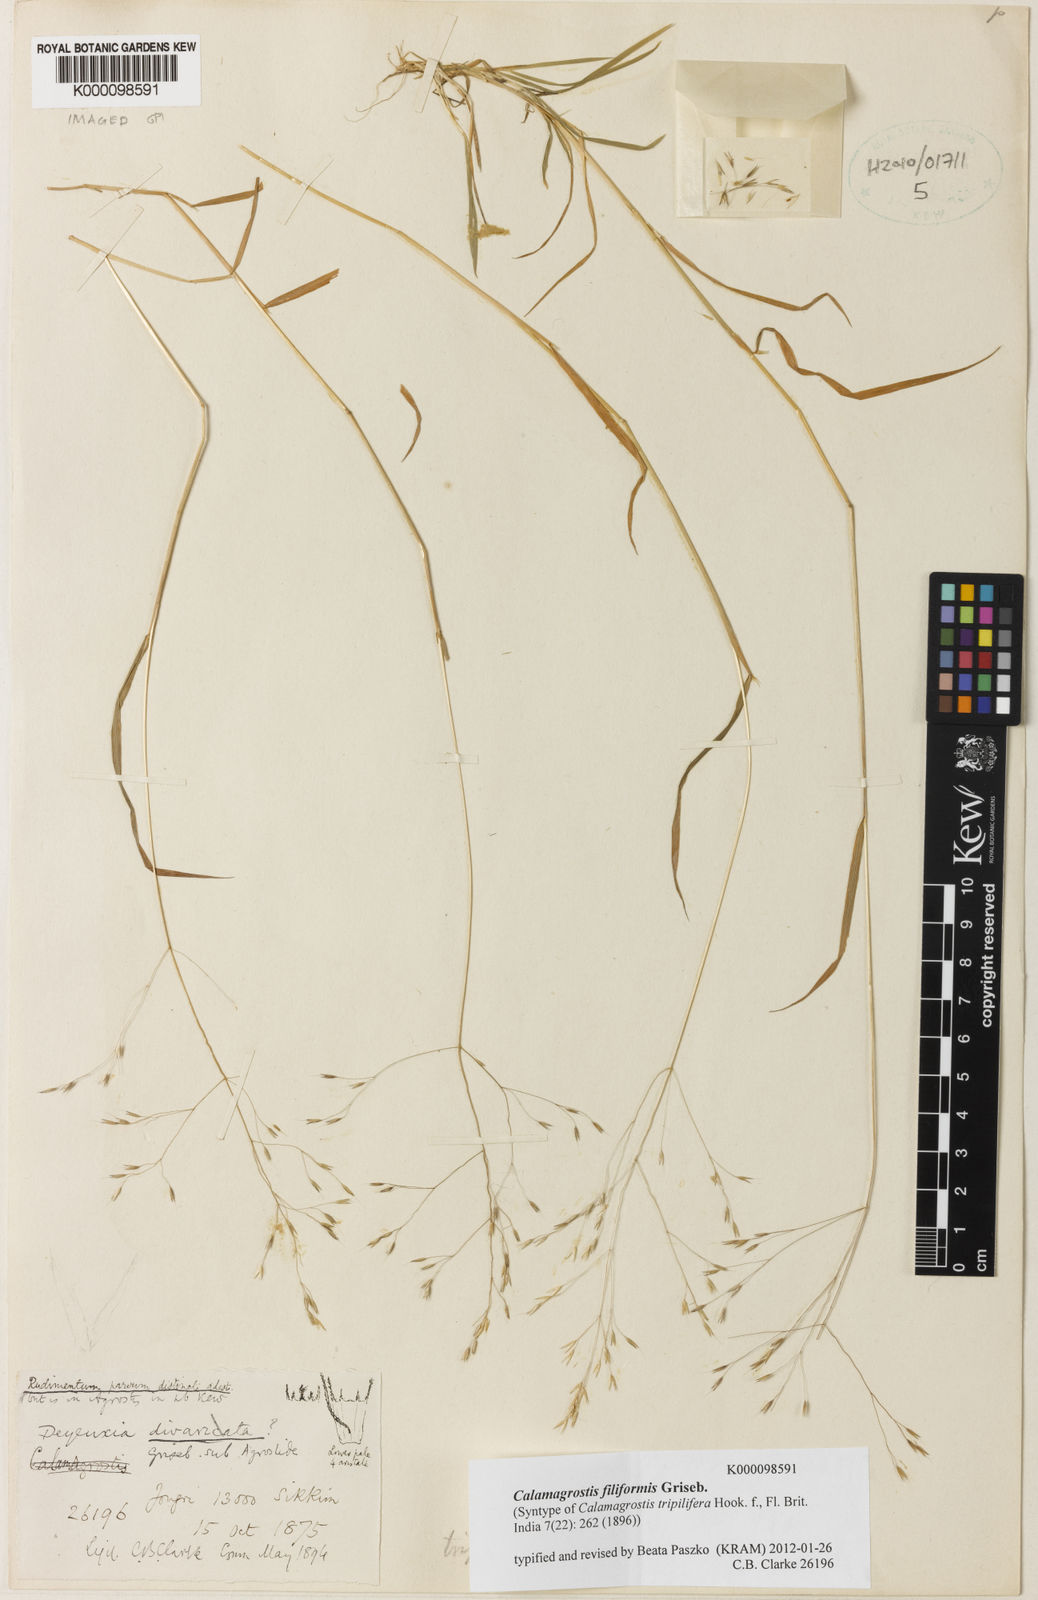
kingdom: Plantae
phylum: Tracheophyta
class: Liliopsida
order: Poales
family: Poaceae
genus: Calamagrostis
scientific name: Calamagrostis filiformis
